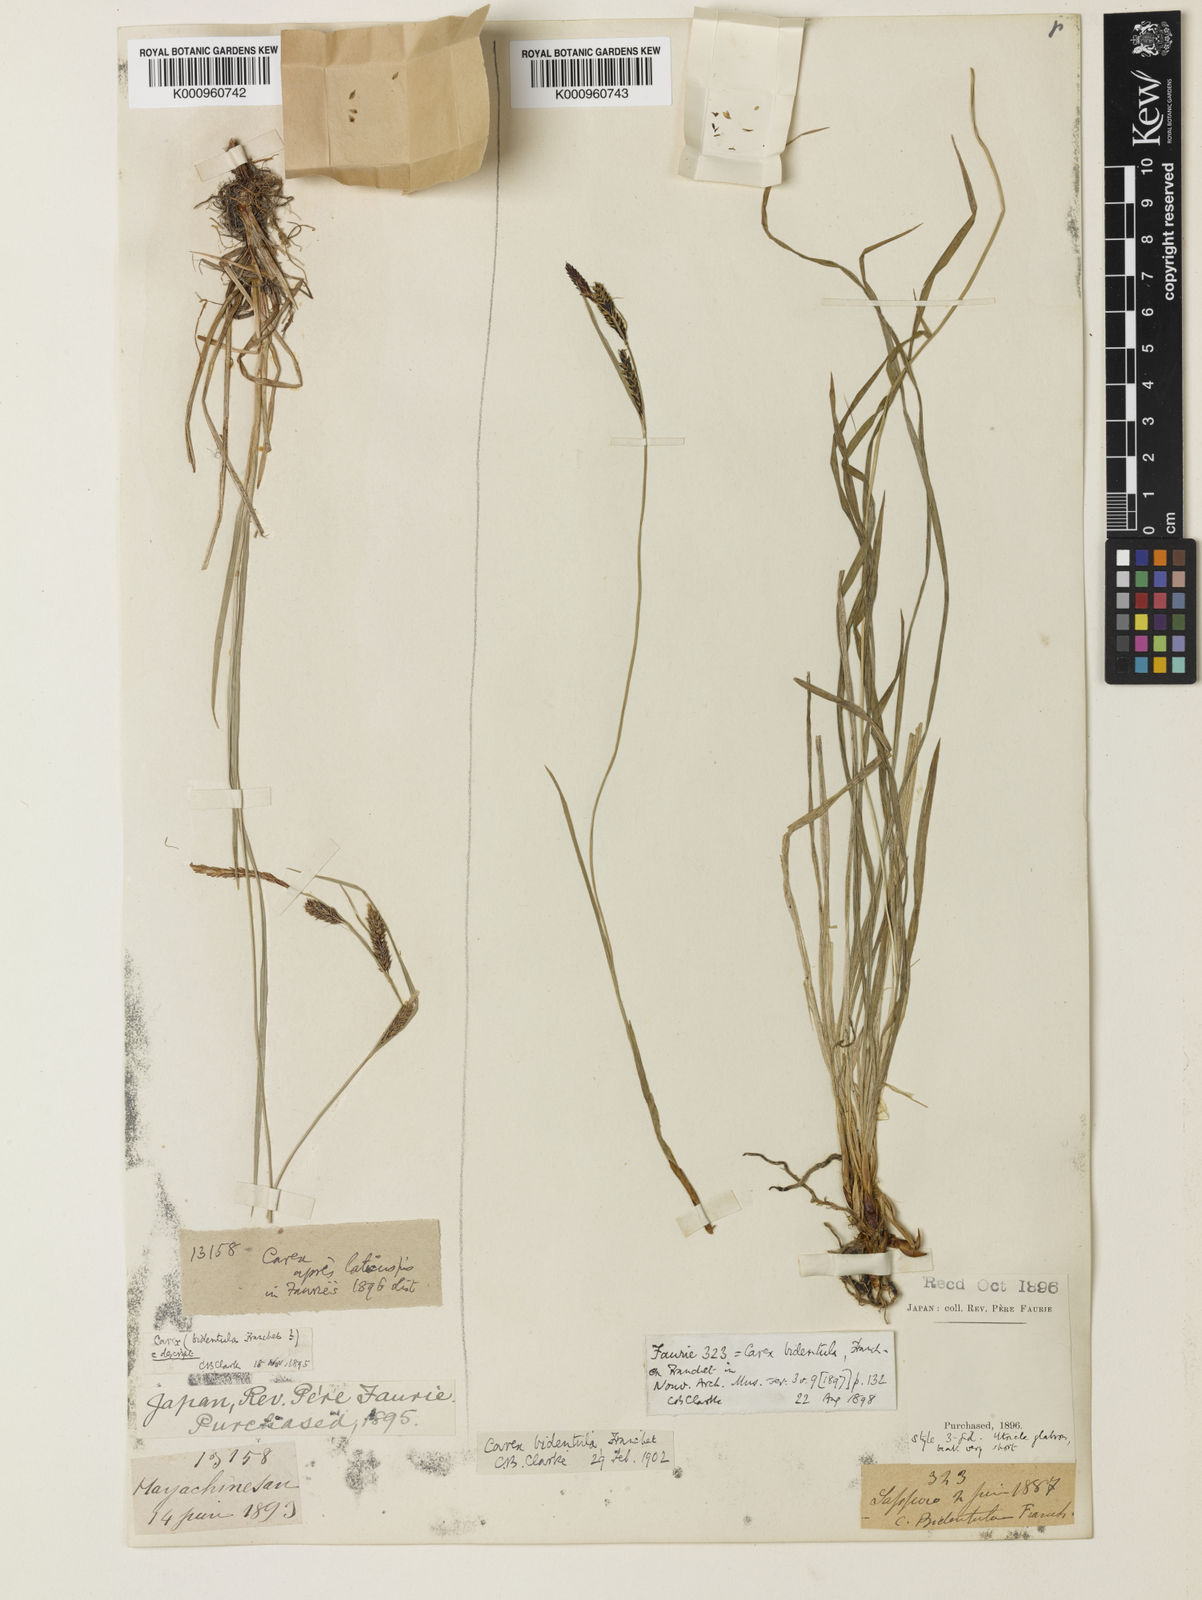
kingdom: Plantae
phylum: Tracheophyta
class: Liliopsida
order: Poales
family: Cyperaceae
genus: Carex
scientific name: Carex augustinowiczii
